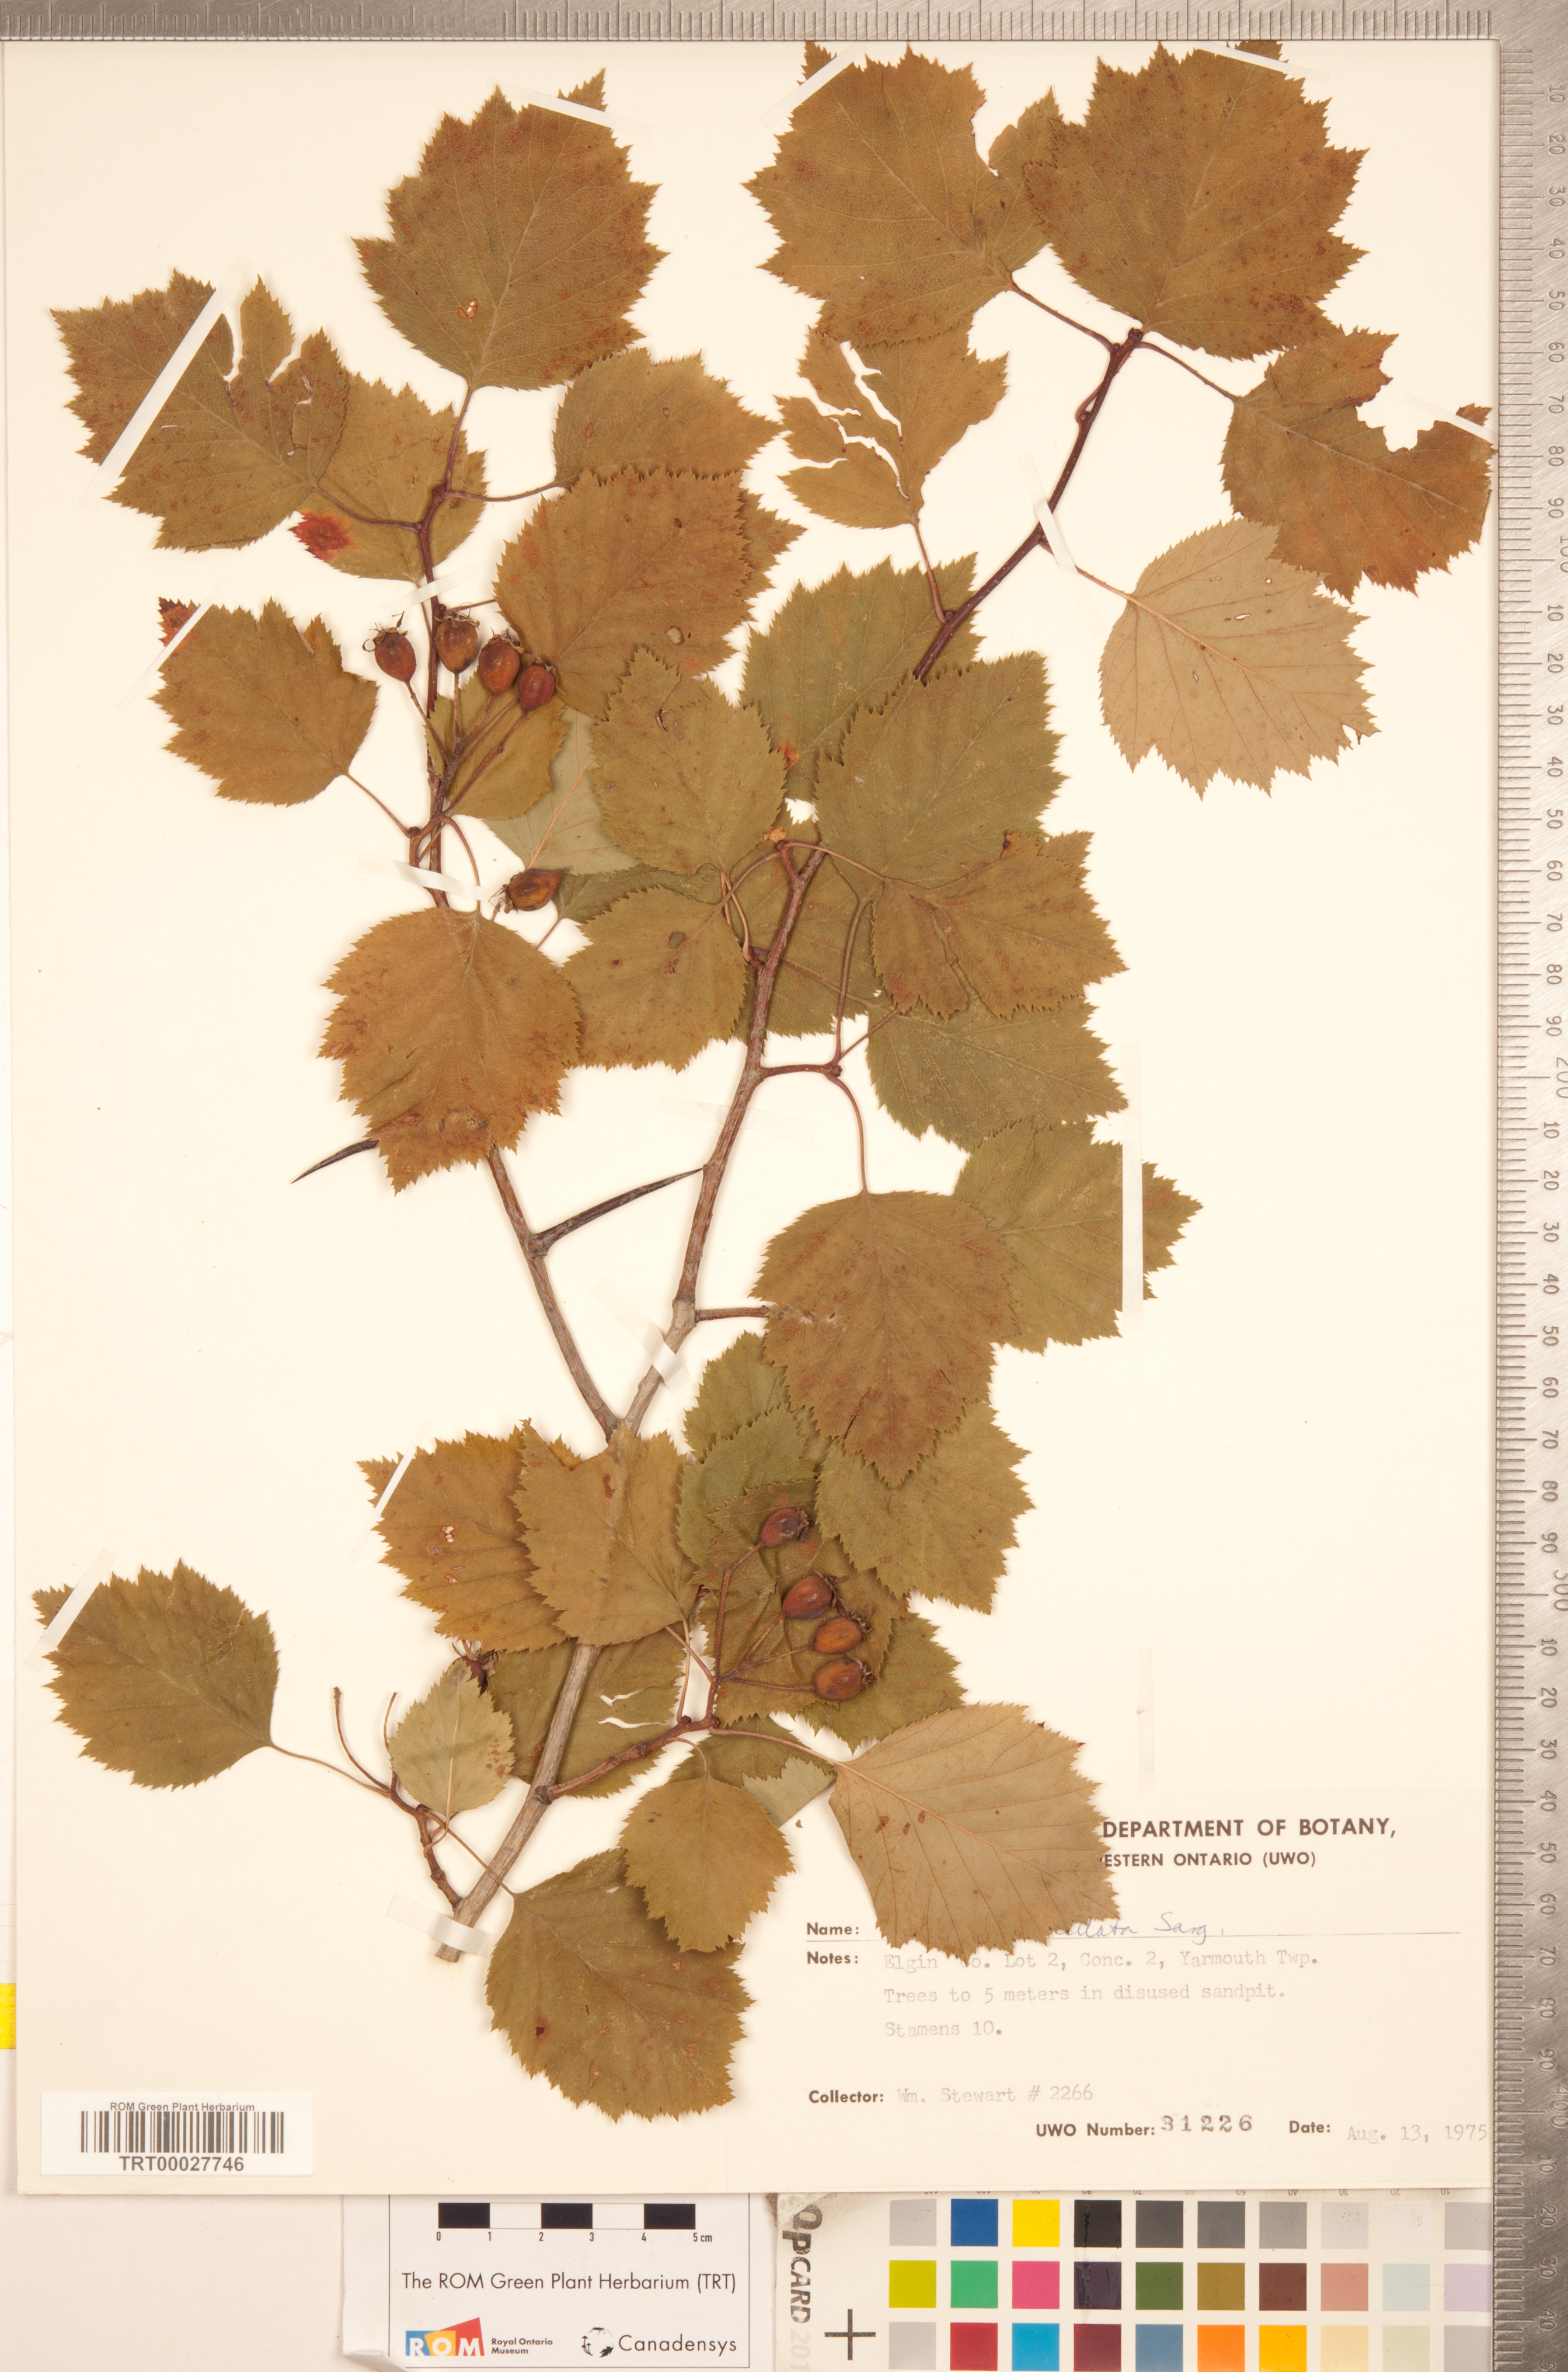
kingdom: Plantae
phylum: Tracheophyta
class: Magnoliopsida
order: Rosales
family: Rosaceae
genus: Crataegus
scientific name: Crataegus coccinea
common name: Scarlet hawthorn
